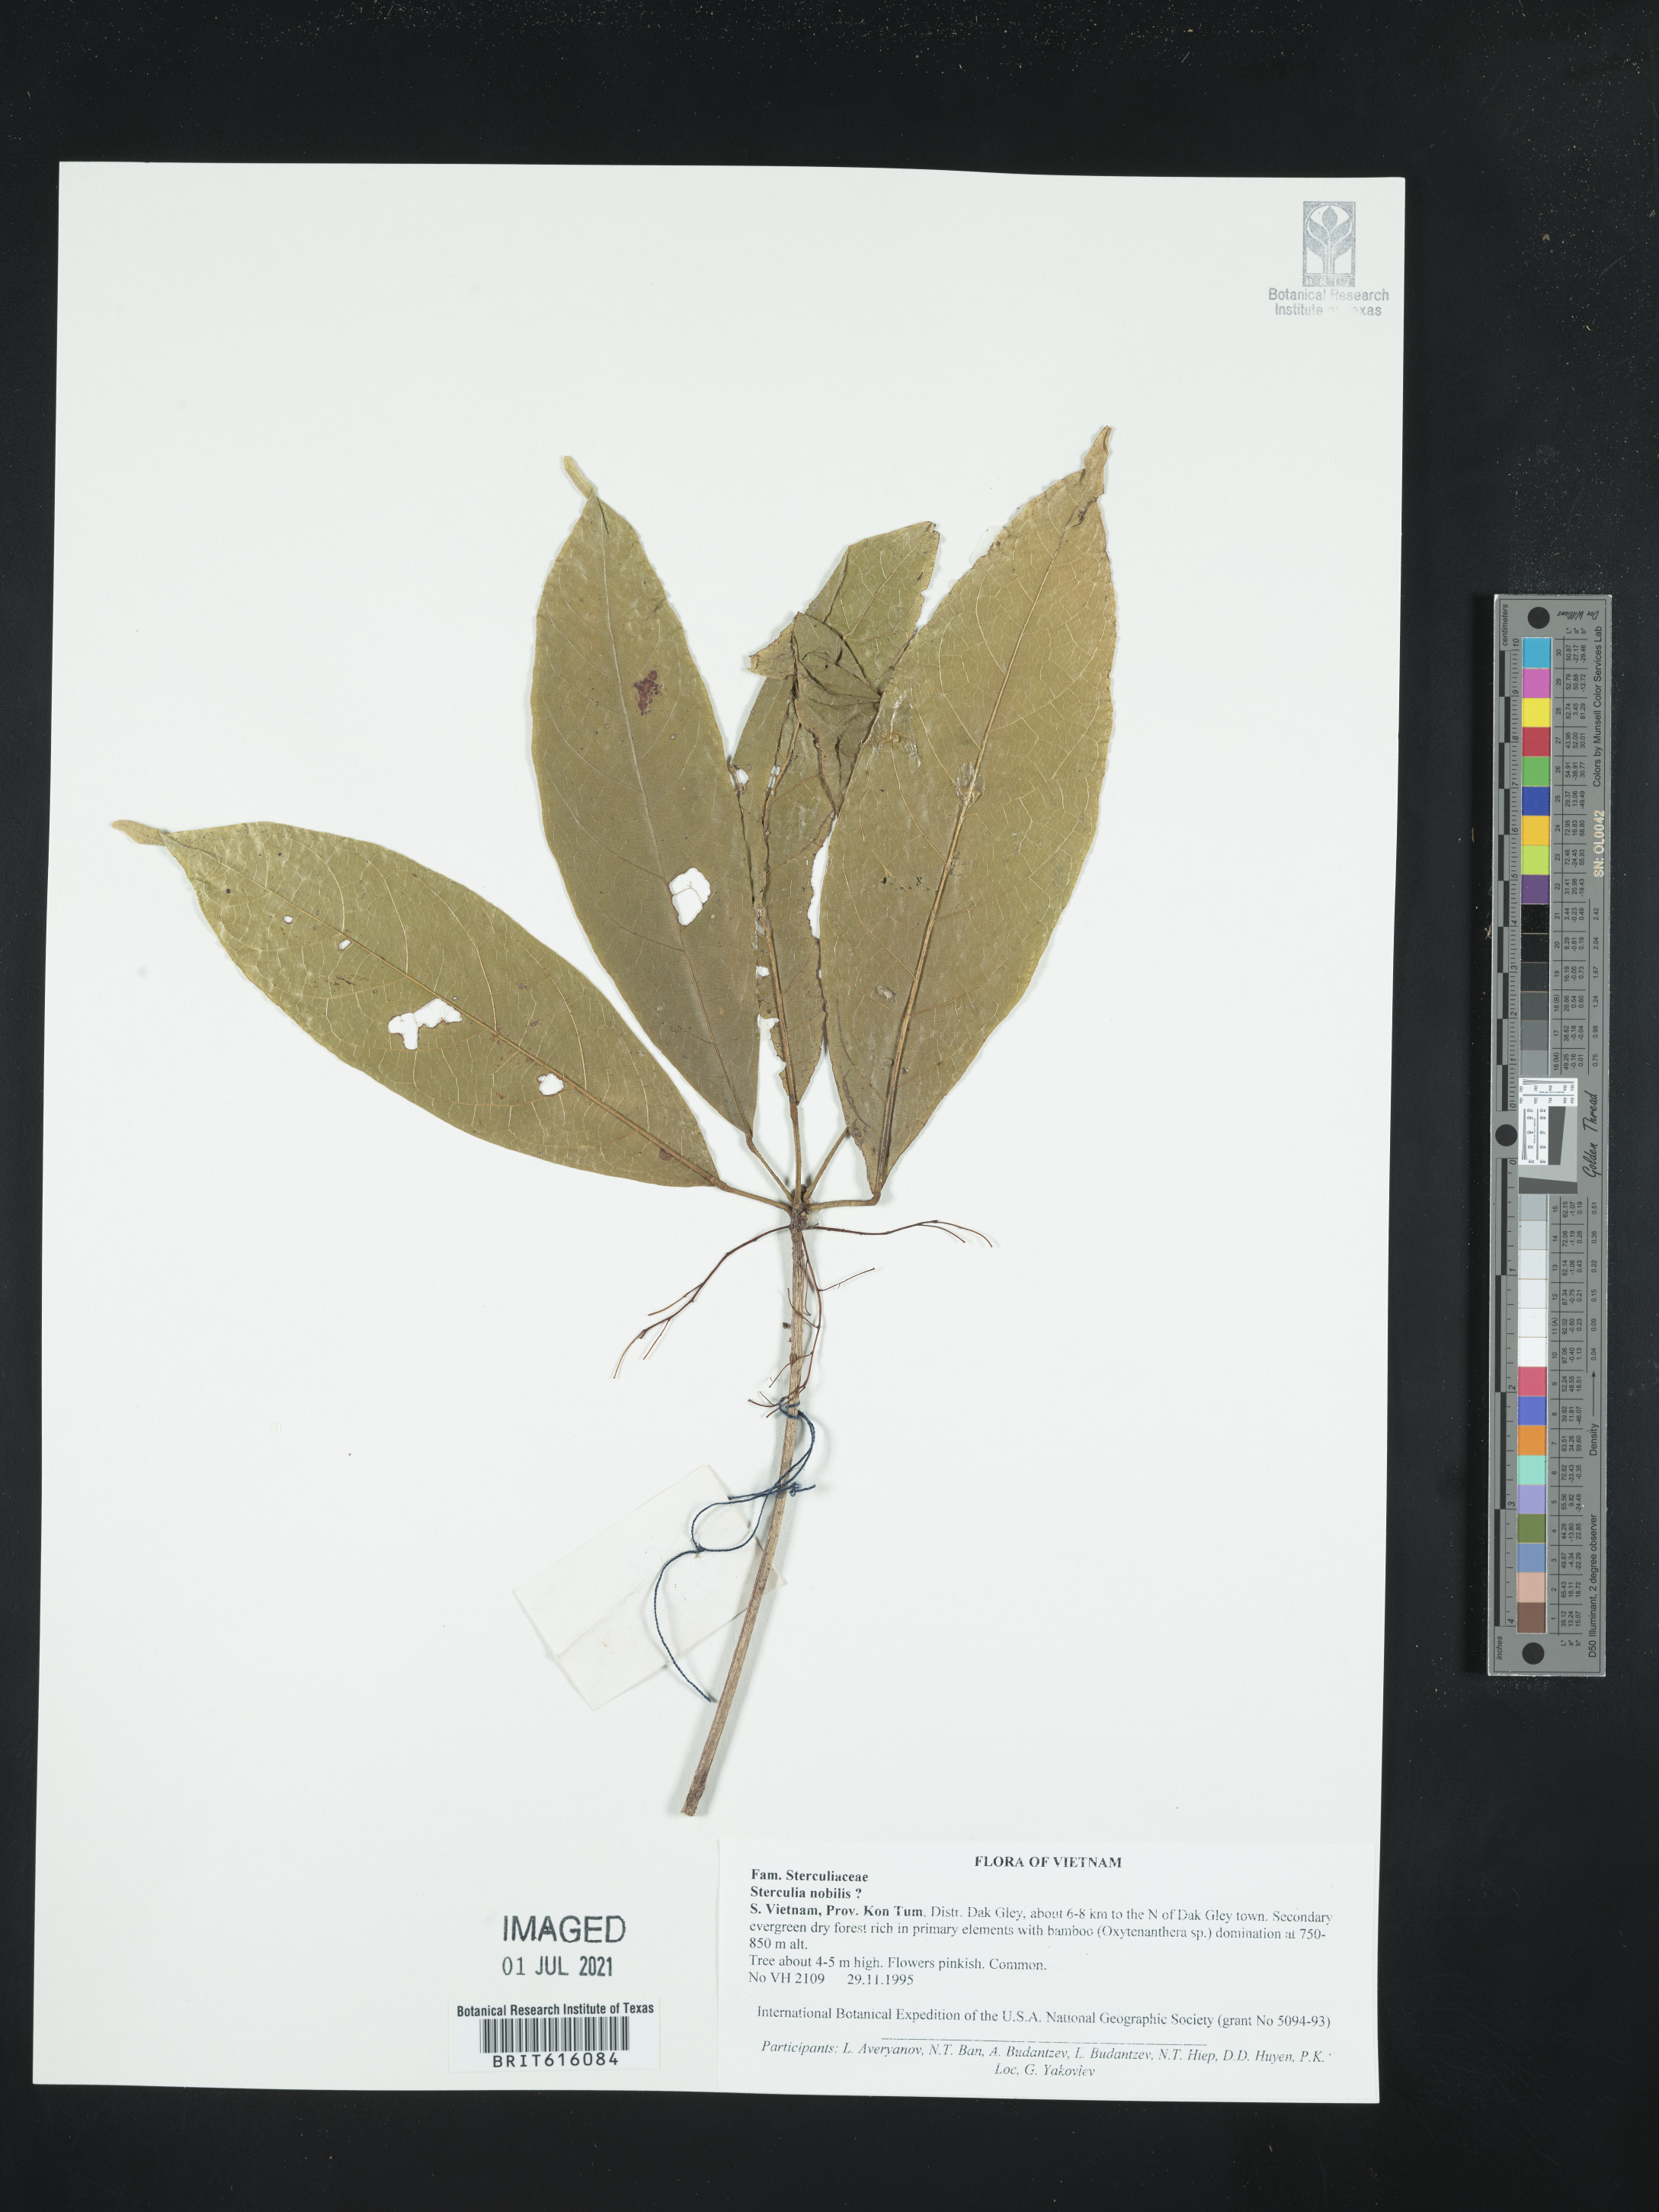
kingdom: Plantae
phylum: Tracheophyta
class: Magnoliopsida
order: Malvales
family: Malvaceae
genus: Sterculia
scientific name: Sterculia monosperma
